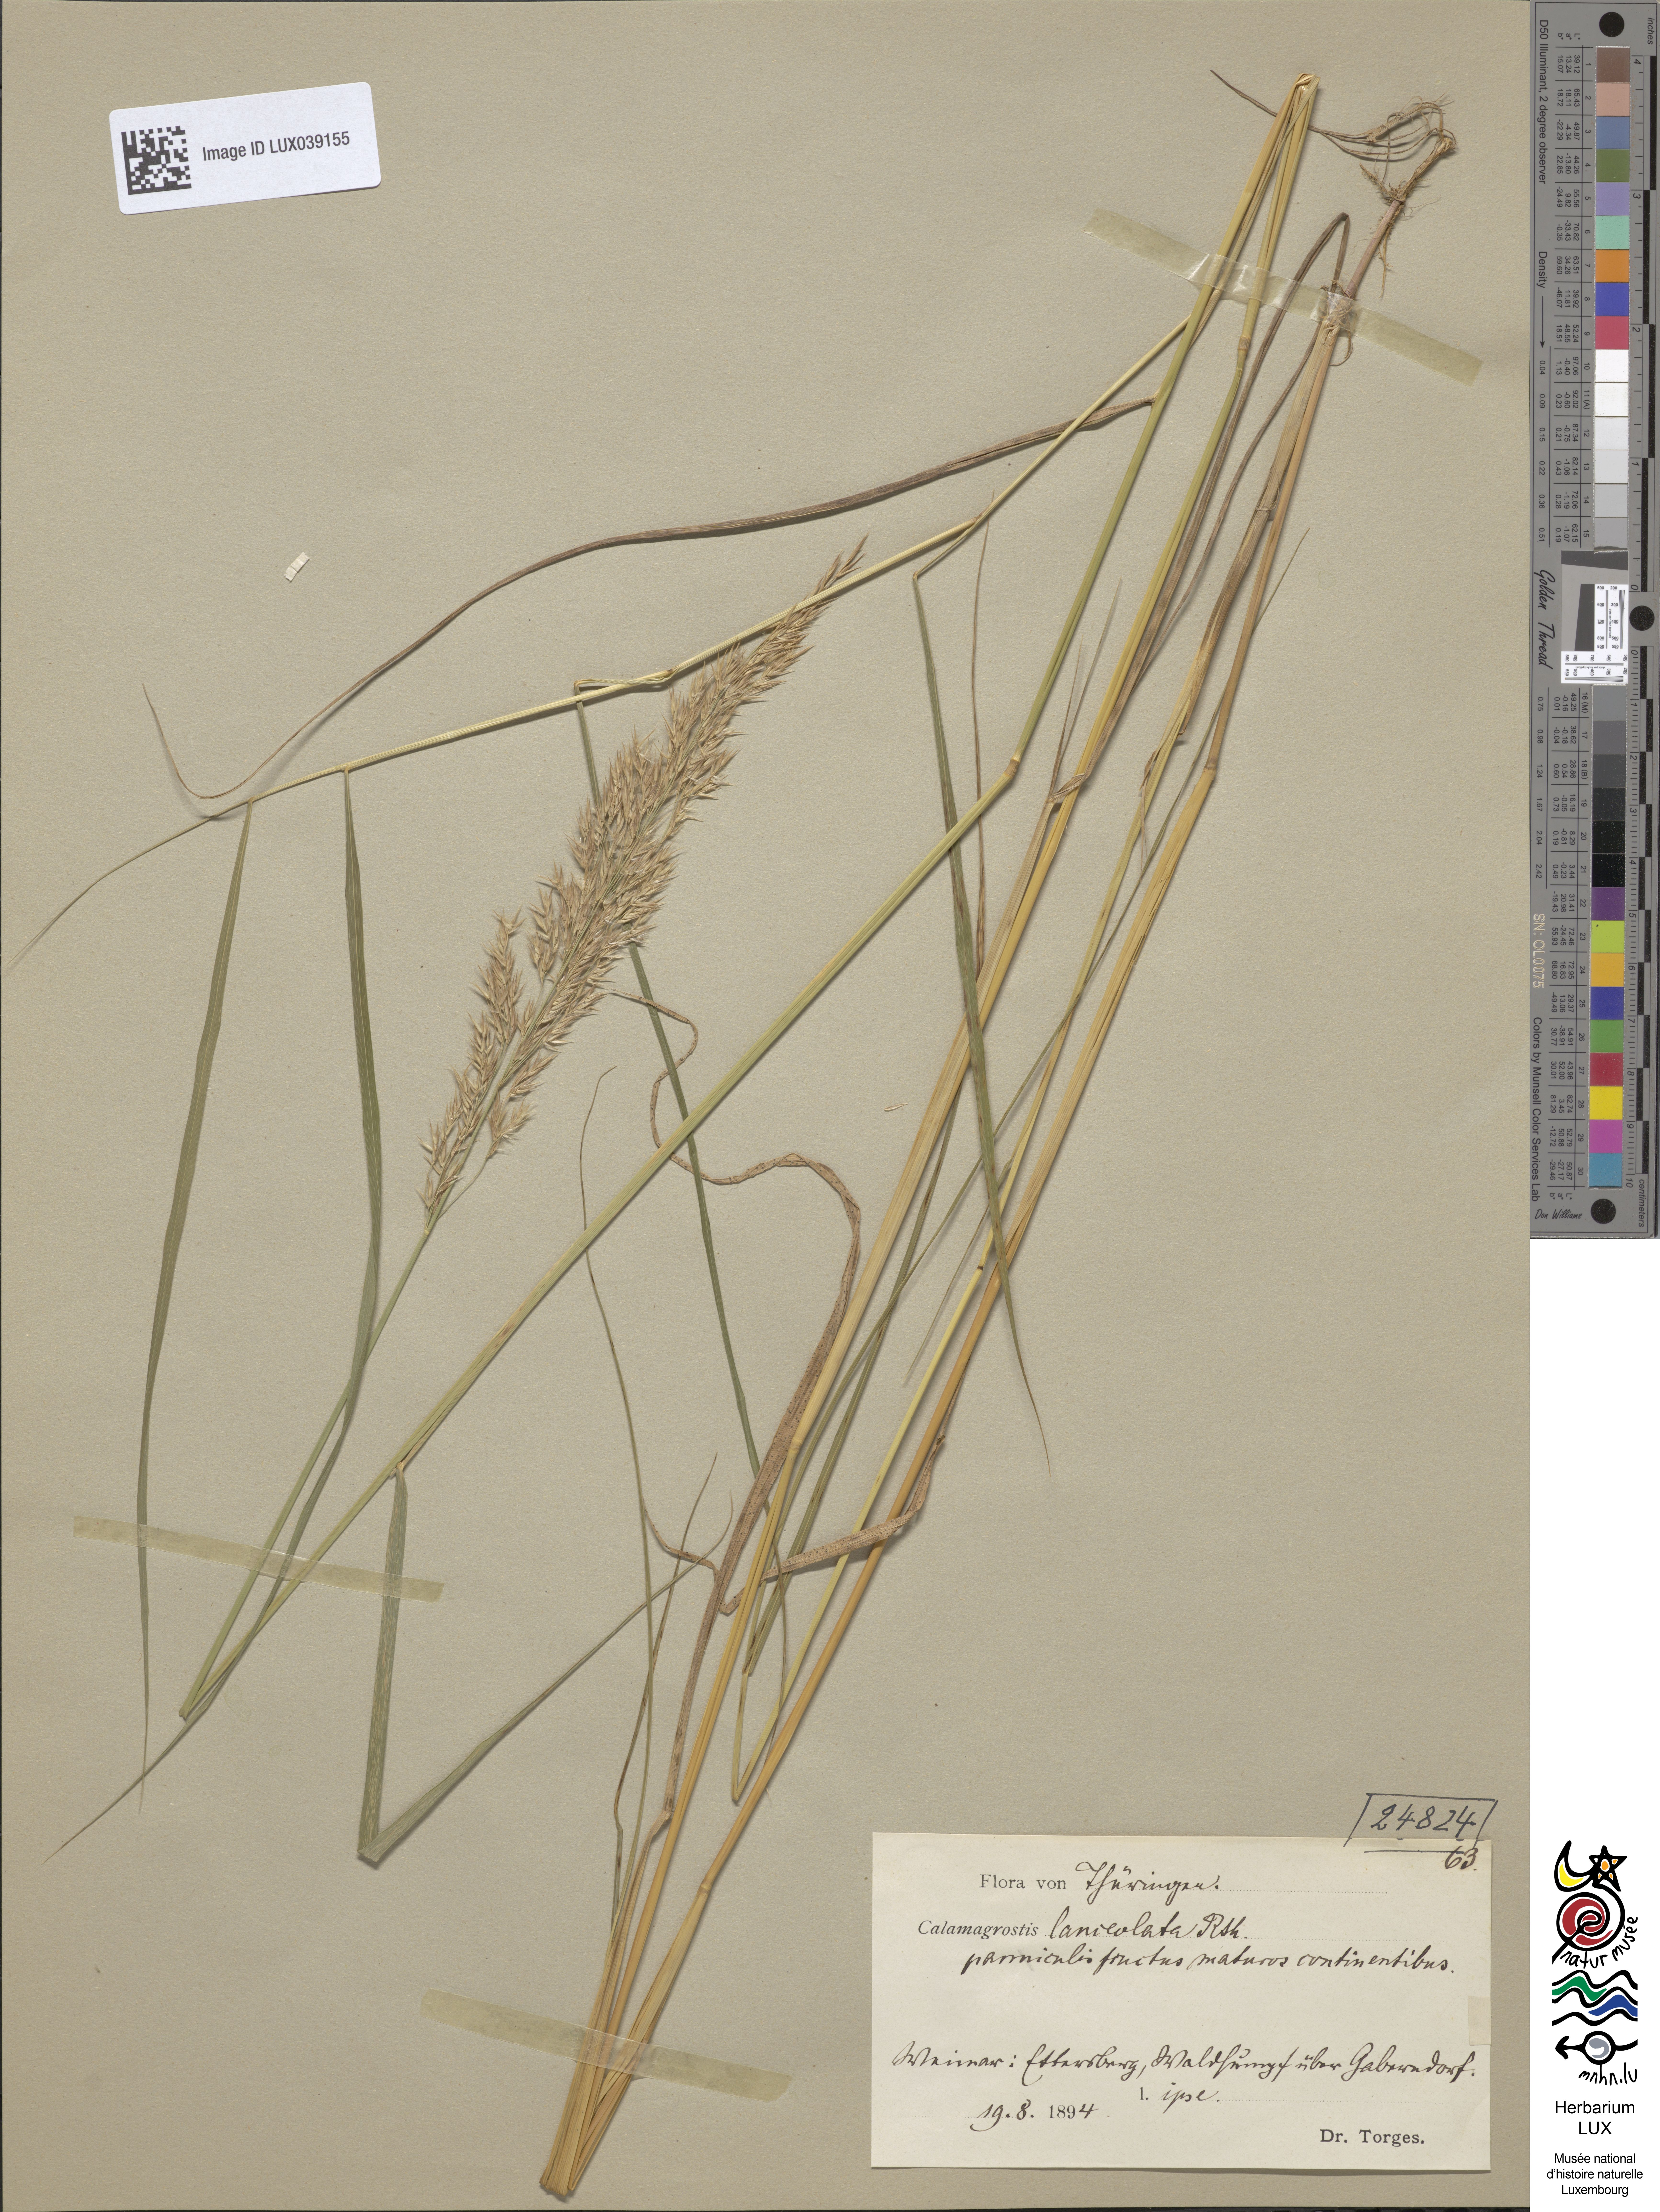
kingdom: Plantae
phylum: Tracheophyta
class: Liliopsida
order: Poales
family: Poaceae
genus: Calamagrostis
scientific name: Calamagrostis canescens
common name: Purple small-reed
